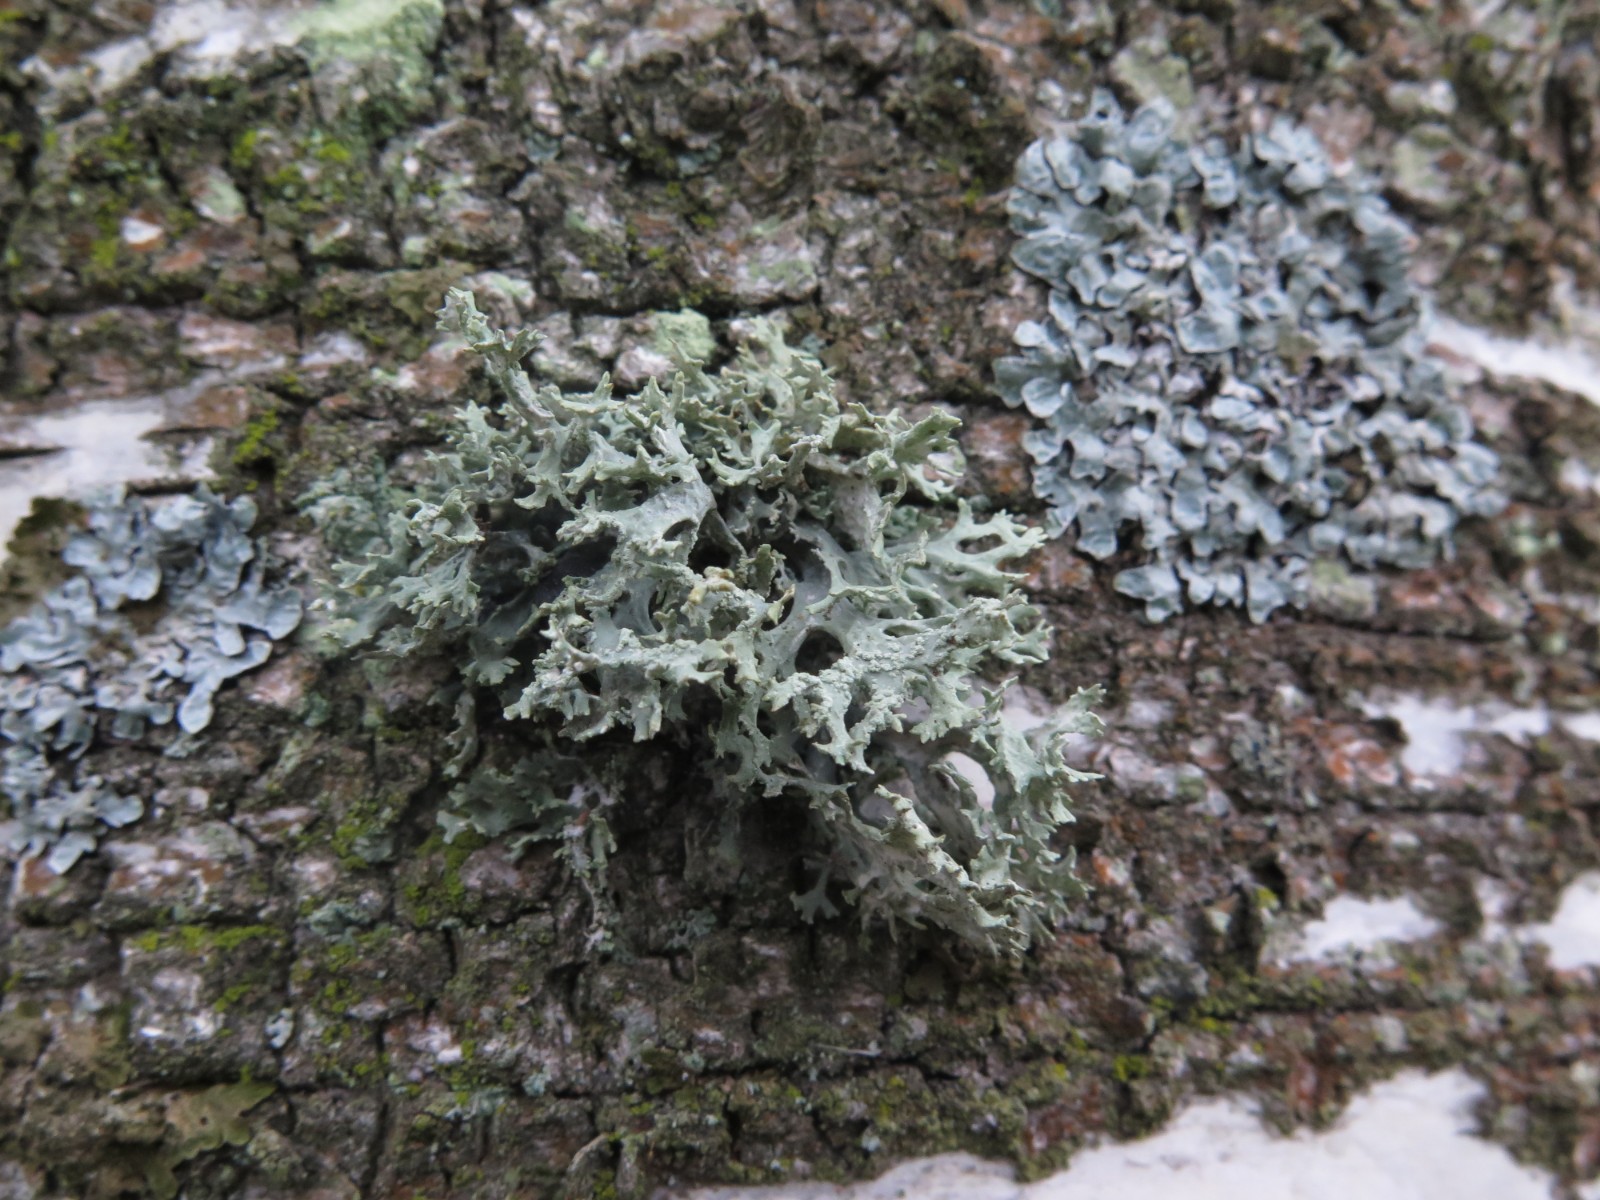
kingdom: Fungi
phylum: Ascomycota
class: Lecanoromycetes
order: Lecanorales
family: Parmeliaceae
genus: Evernia
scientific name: Evernia prunastri
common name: almindelig slåenlav
